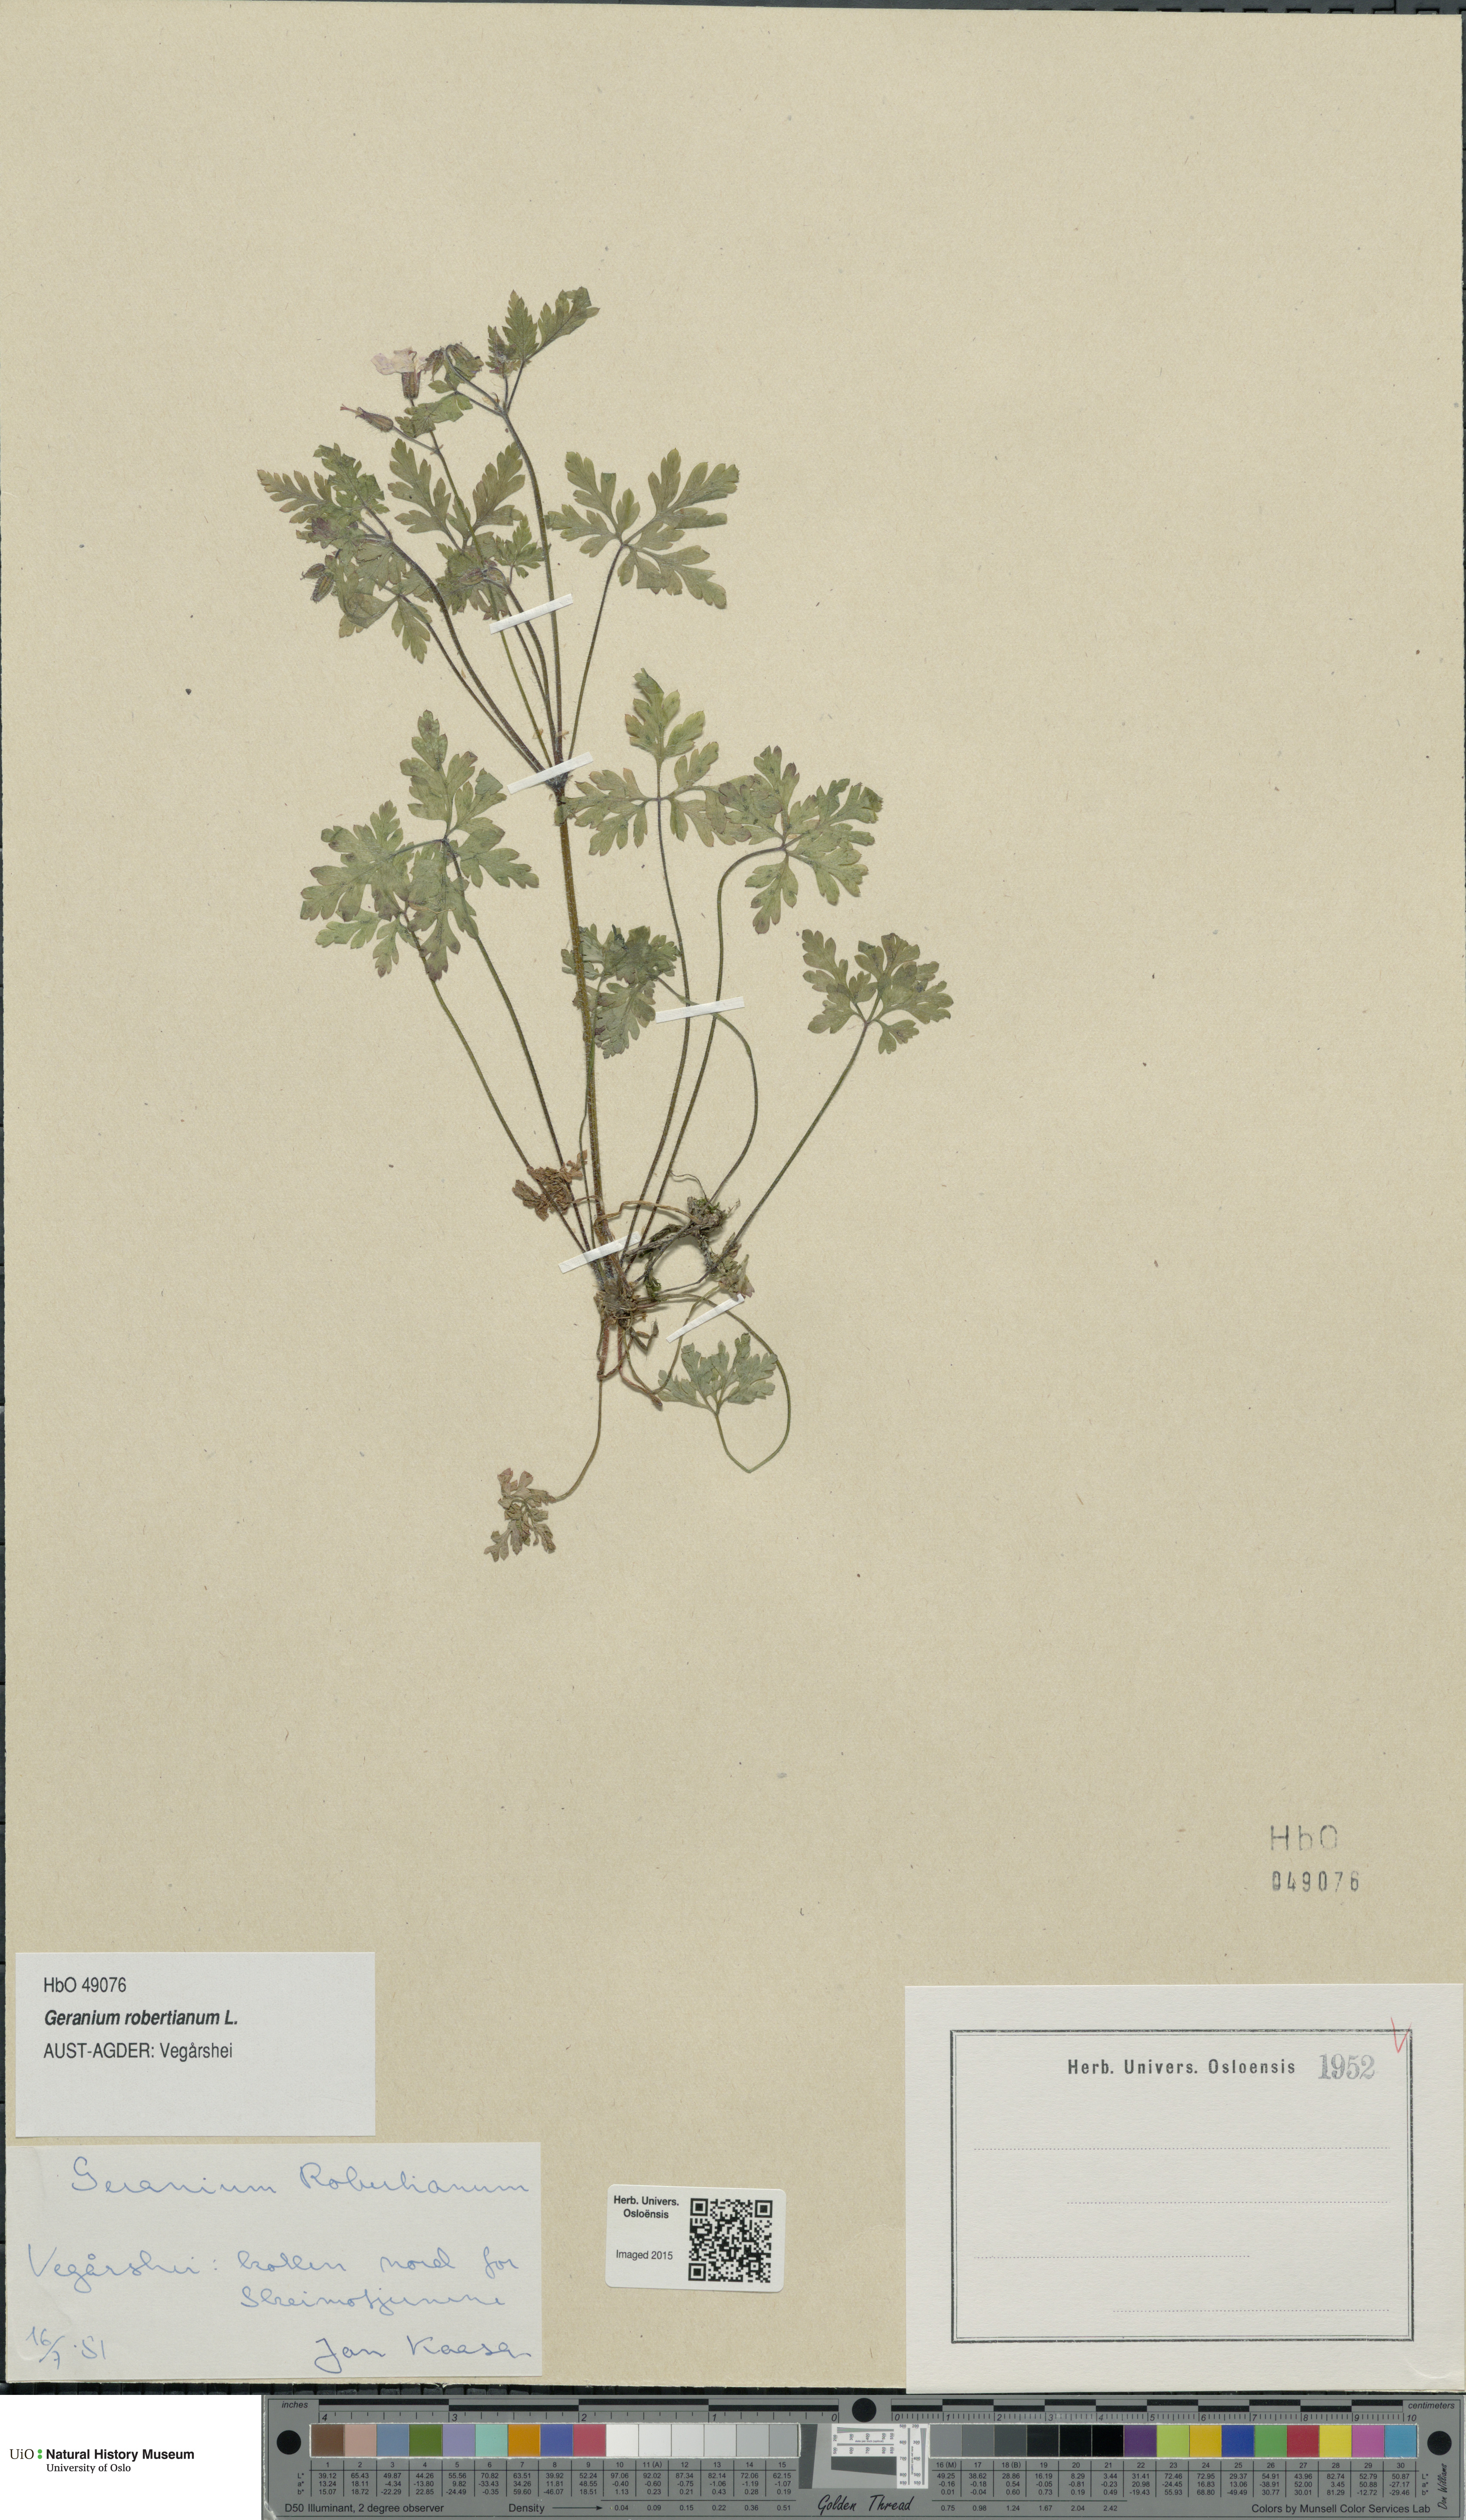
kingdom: Plantae
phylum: Tracheophyta
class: Magnoliopsida
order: Geraniales
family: Geraniaceae
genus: Geranium
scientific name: Geranium robertianum
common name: Herb-robert
